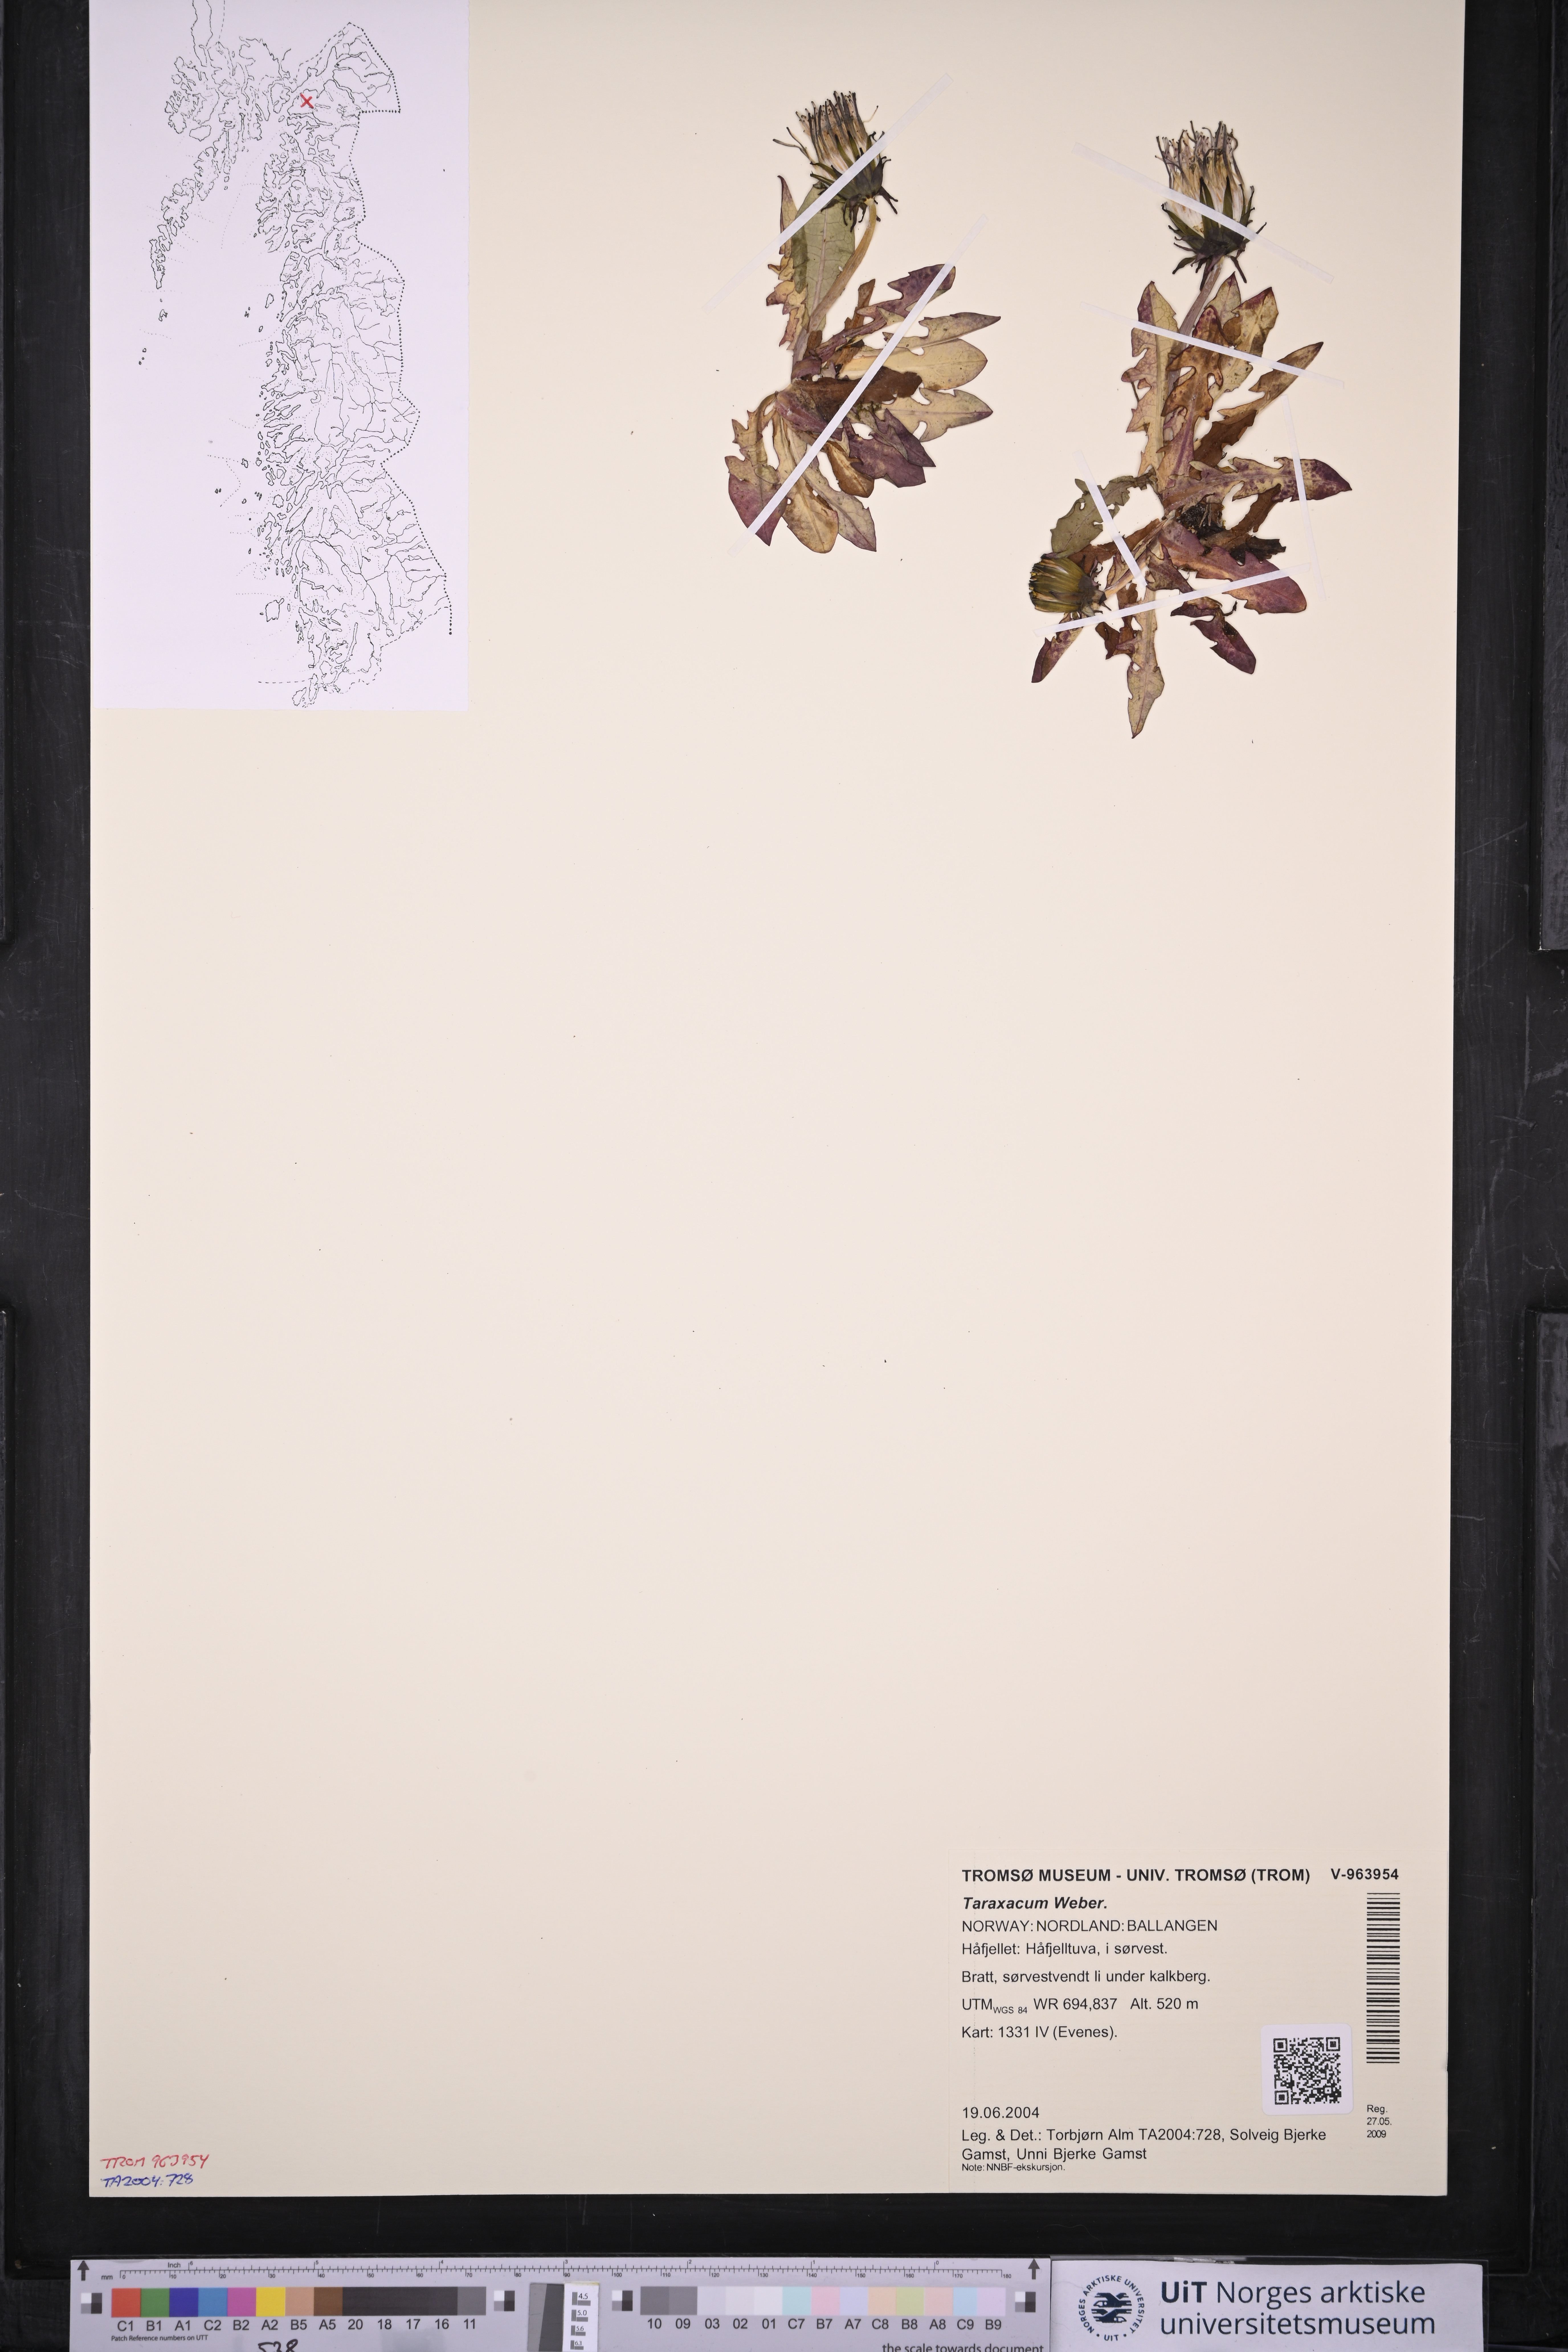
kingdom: Plantae
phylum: Tracheophyta
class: Magnoliopsida
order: Asterales
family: Asteraceae
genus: Taraxacum
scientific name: Taraxacum
